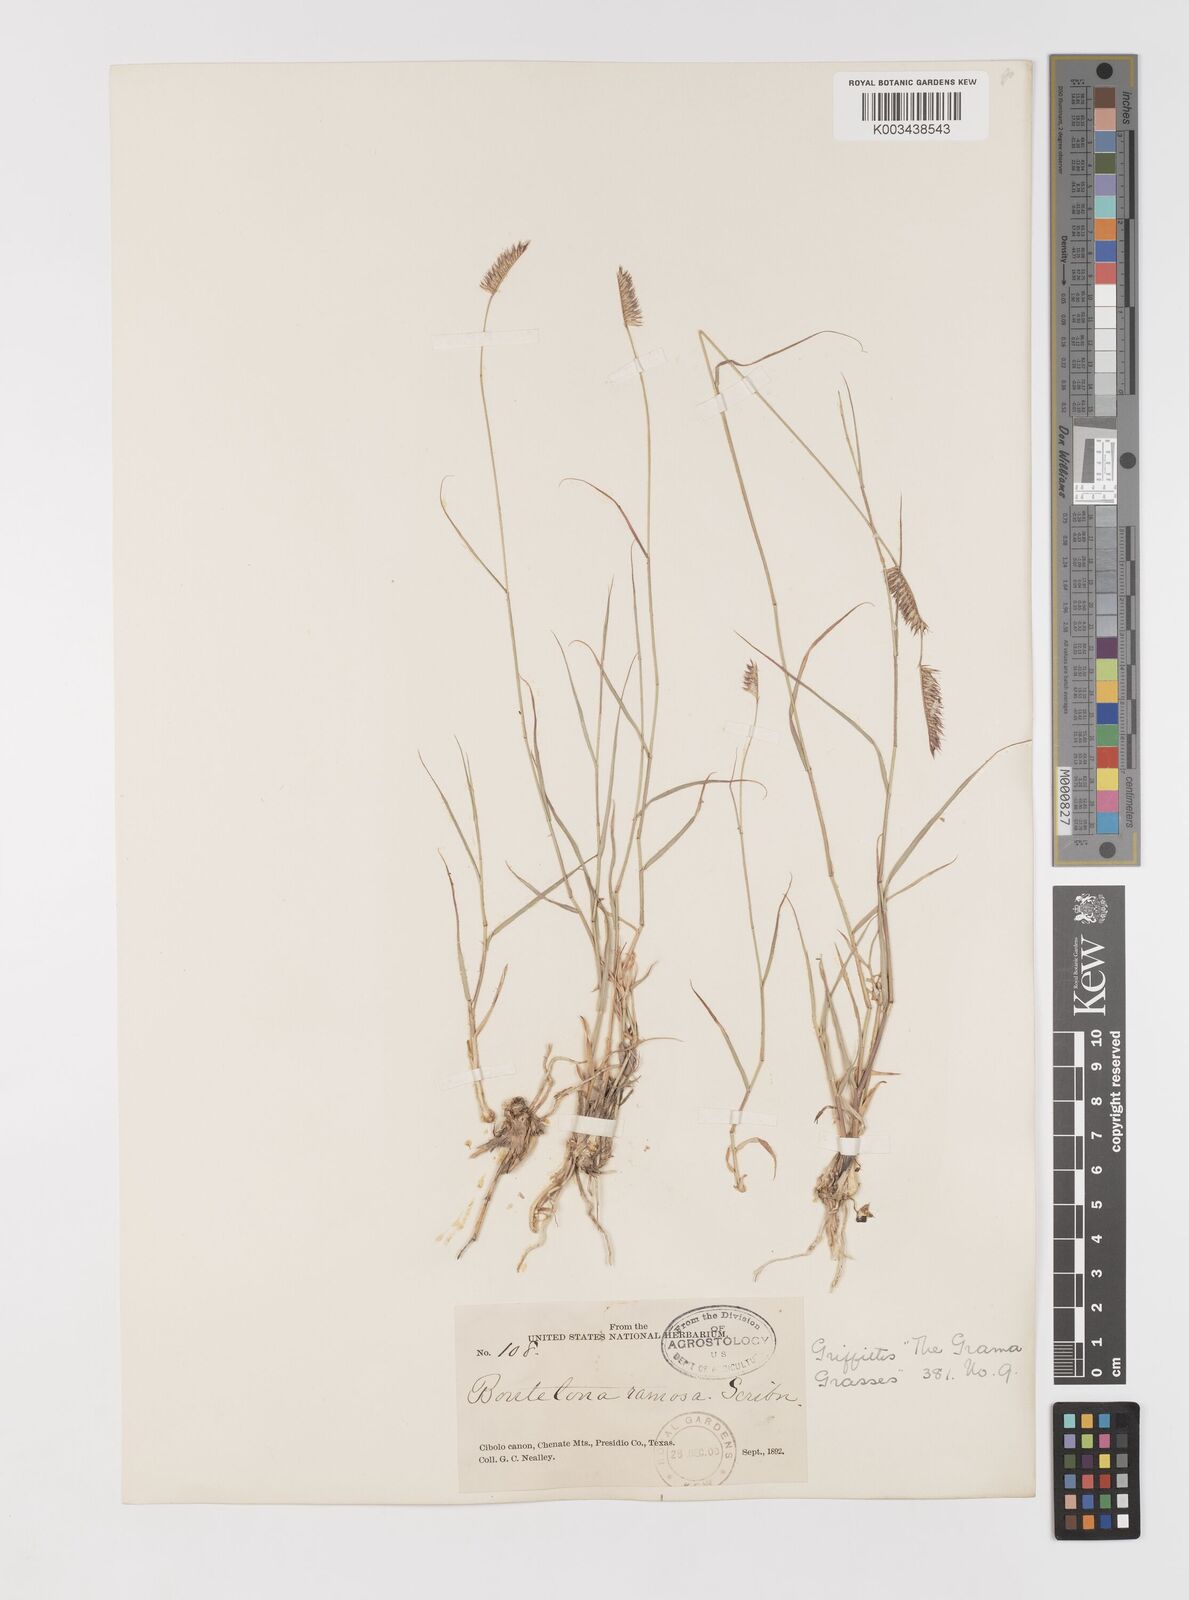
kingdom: Plantae
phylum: Tracheophyta
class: Liliopsida
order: Poales
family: Poaceae
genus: Bouteloua
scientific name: Bouteloua breviseta
